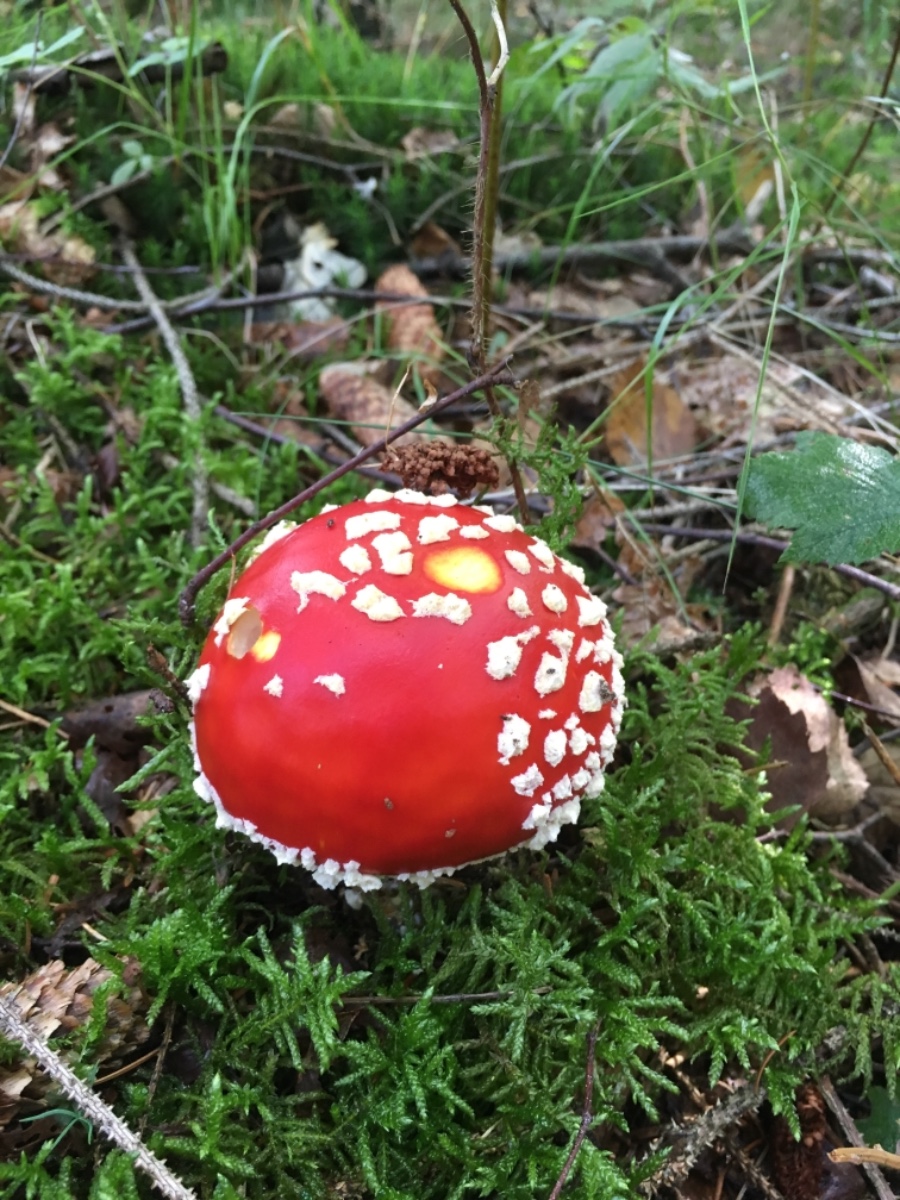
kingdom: Fungi
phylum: Basidiomycota
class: Agaricomycetes
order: Agaricales
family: Amanitaceae
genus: Amanita
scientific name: Amanita muscaria
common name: rød fluesvamp
